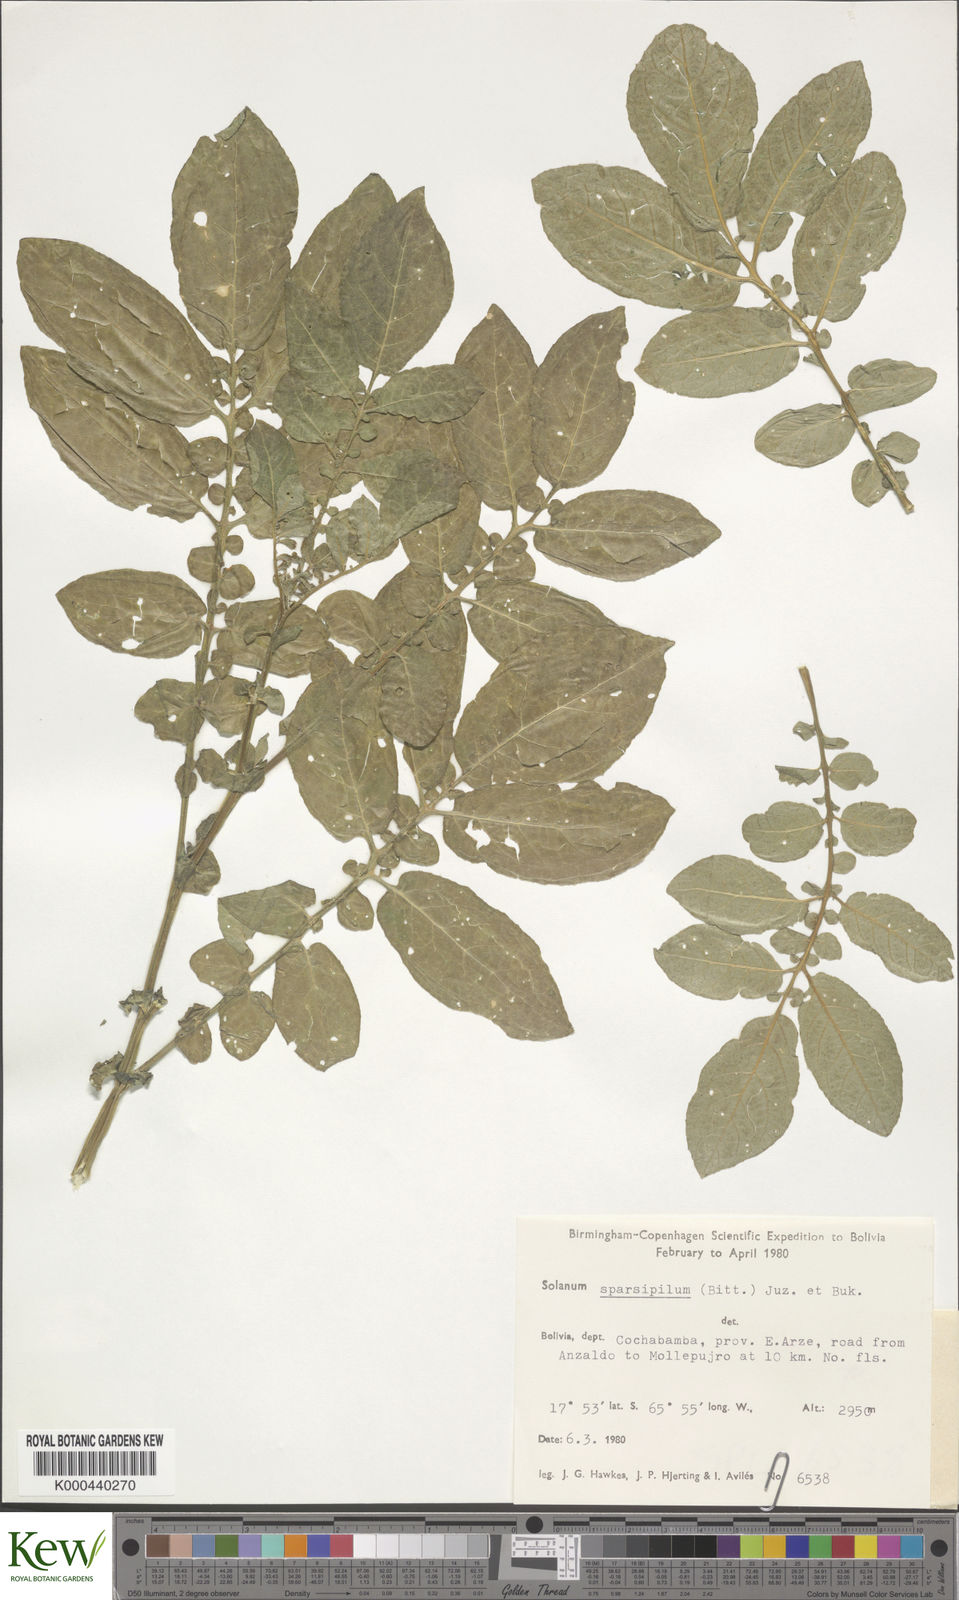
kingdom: Plantae
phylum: Tracheophyta
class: Magnoliopsida
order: Solanales
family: Solanaceae
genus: Solanum
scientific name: Solanum brevicaule
